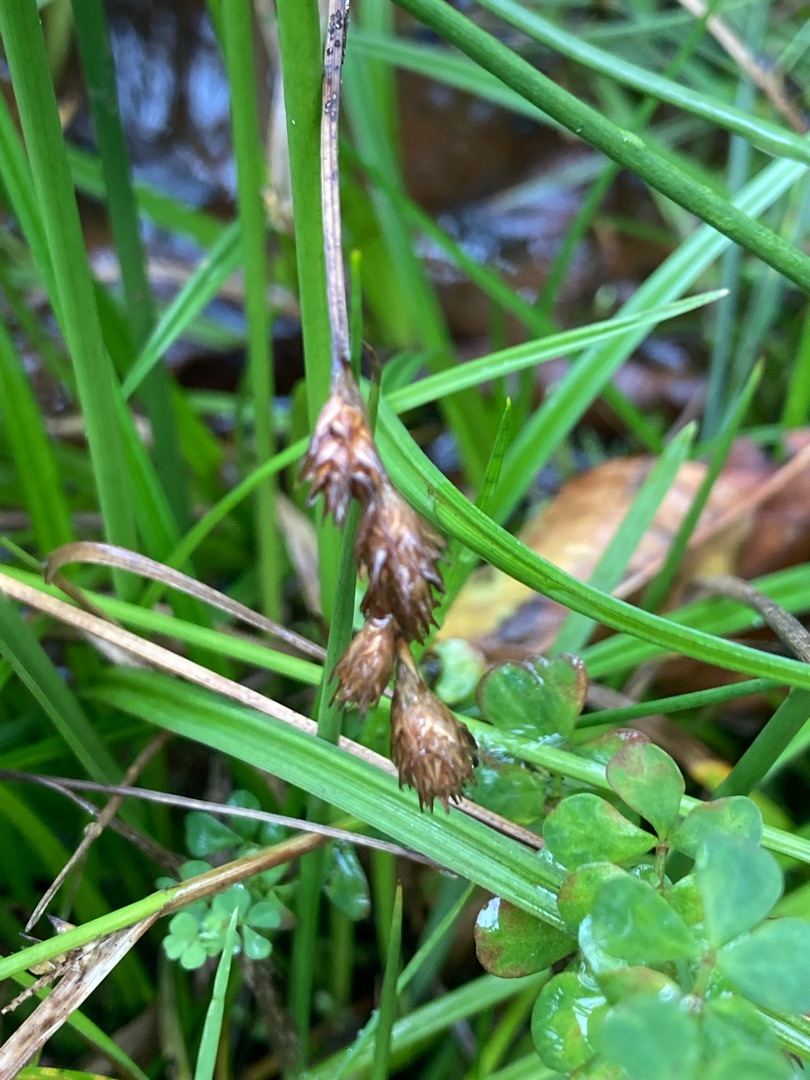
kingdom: Plantae
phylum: Tracheophyta
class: Liliopsida
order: Poales
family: Cyperaceae
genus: Carex
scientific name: Carex leporina
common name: Hare-star
